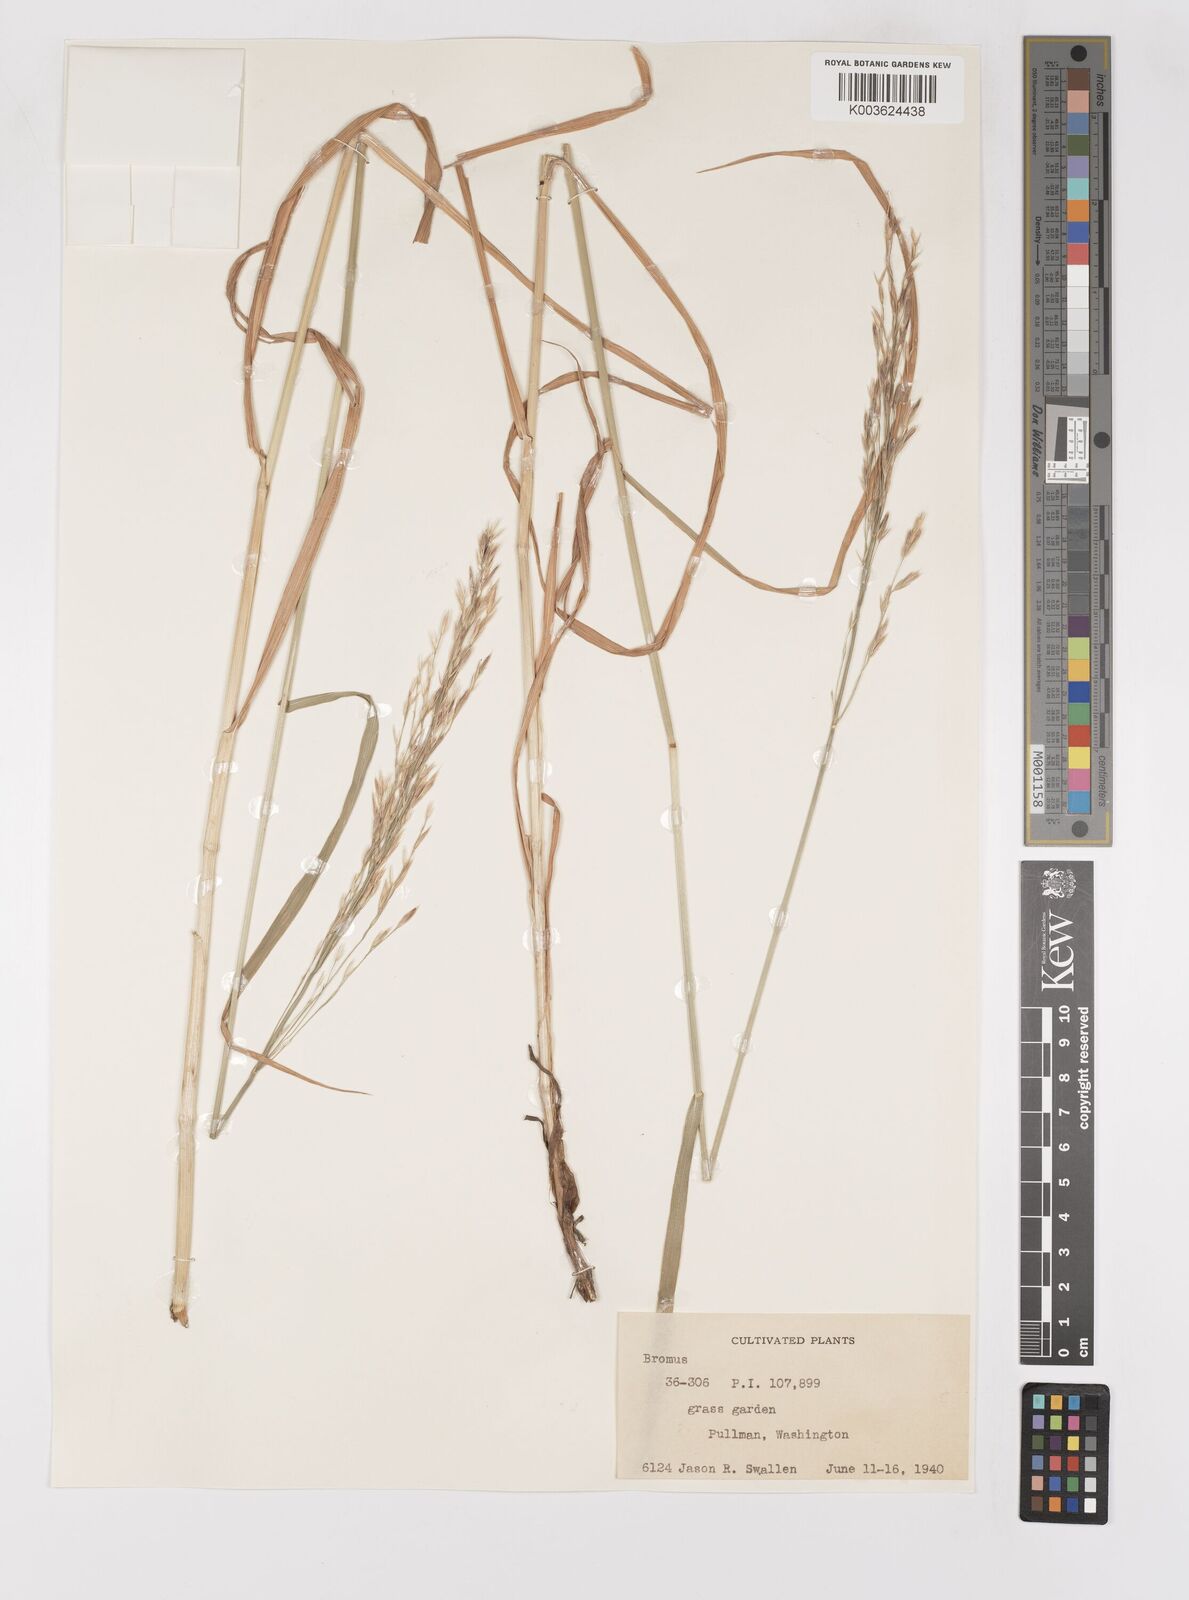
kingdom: Plantae
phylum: Tracheophyta
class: Liliopsida
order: Poales
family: Poaceae
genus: Bromus
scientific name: Bromus
